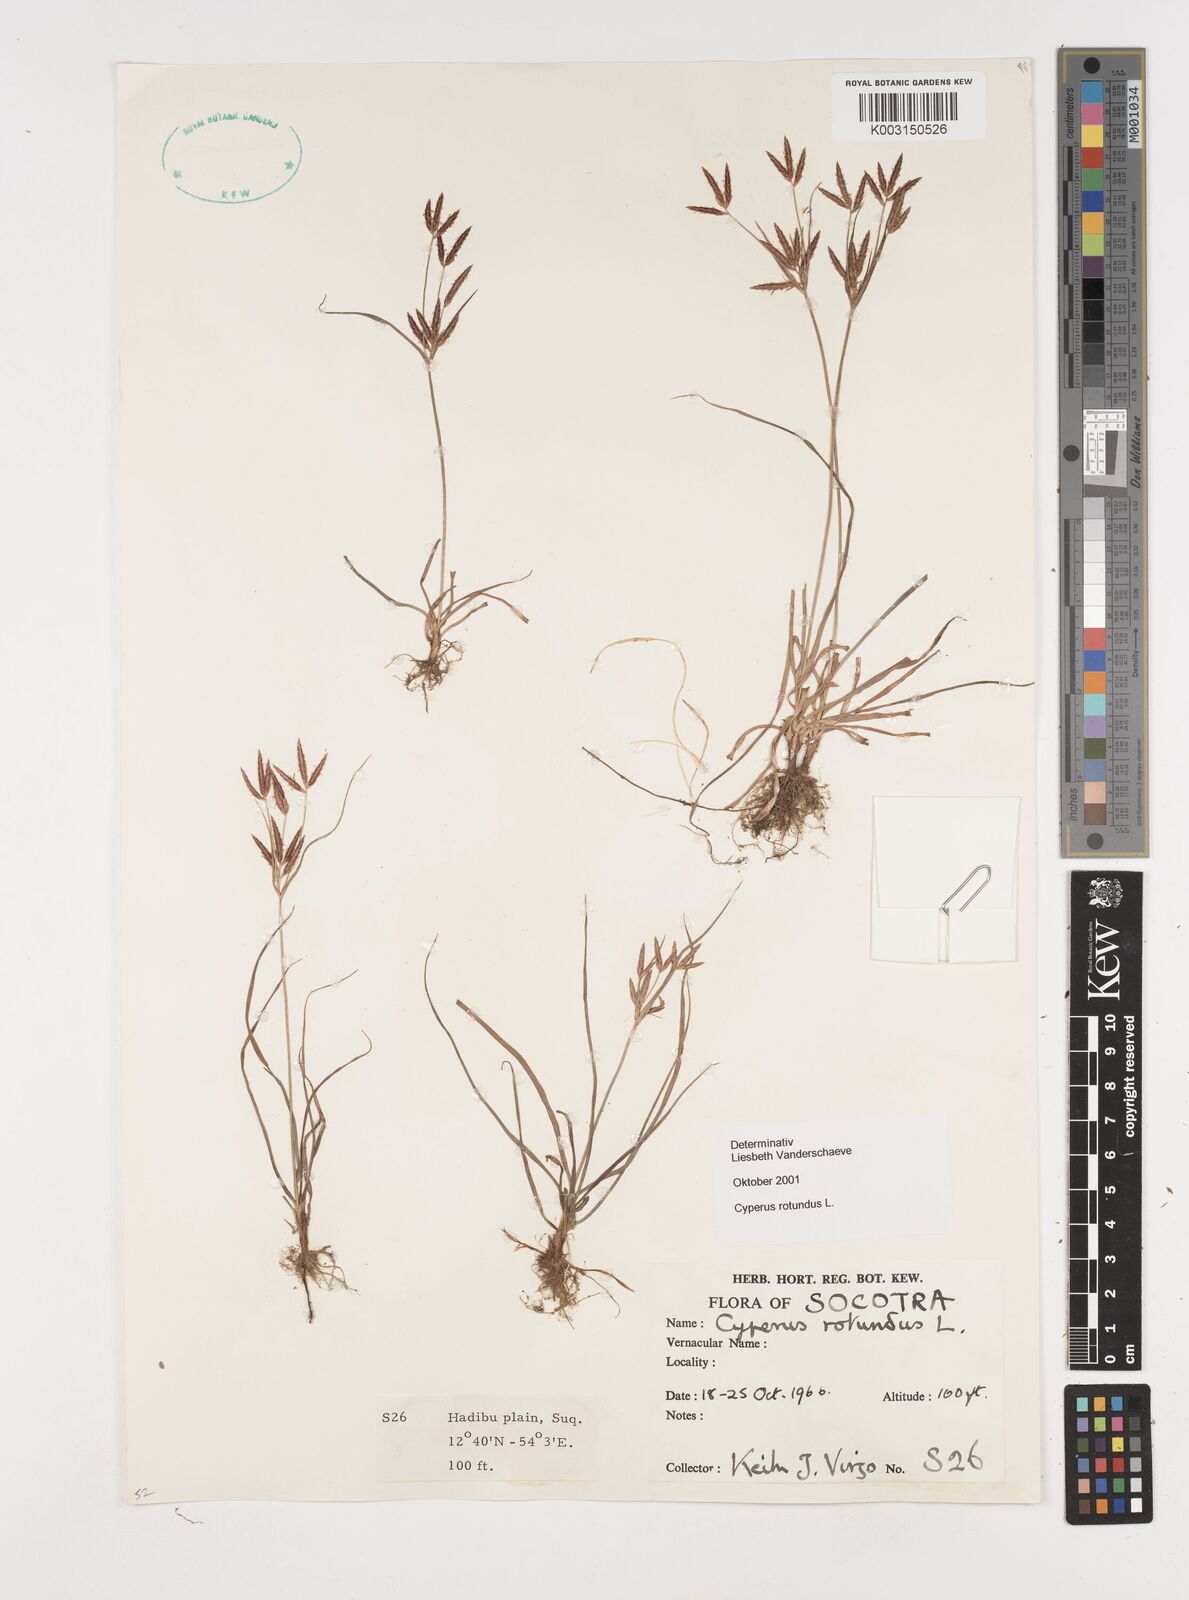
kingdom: Plantae
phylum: Tracheophyta
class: Liliopsida
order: Poales
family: Cyperaceae
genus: Cyperus
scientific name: Cyperus rotundus
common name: Nutgrass
